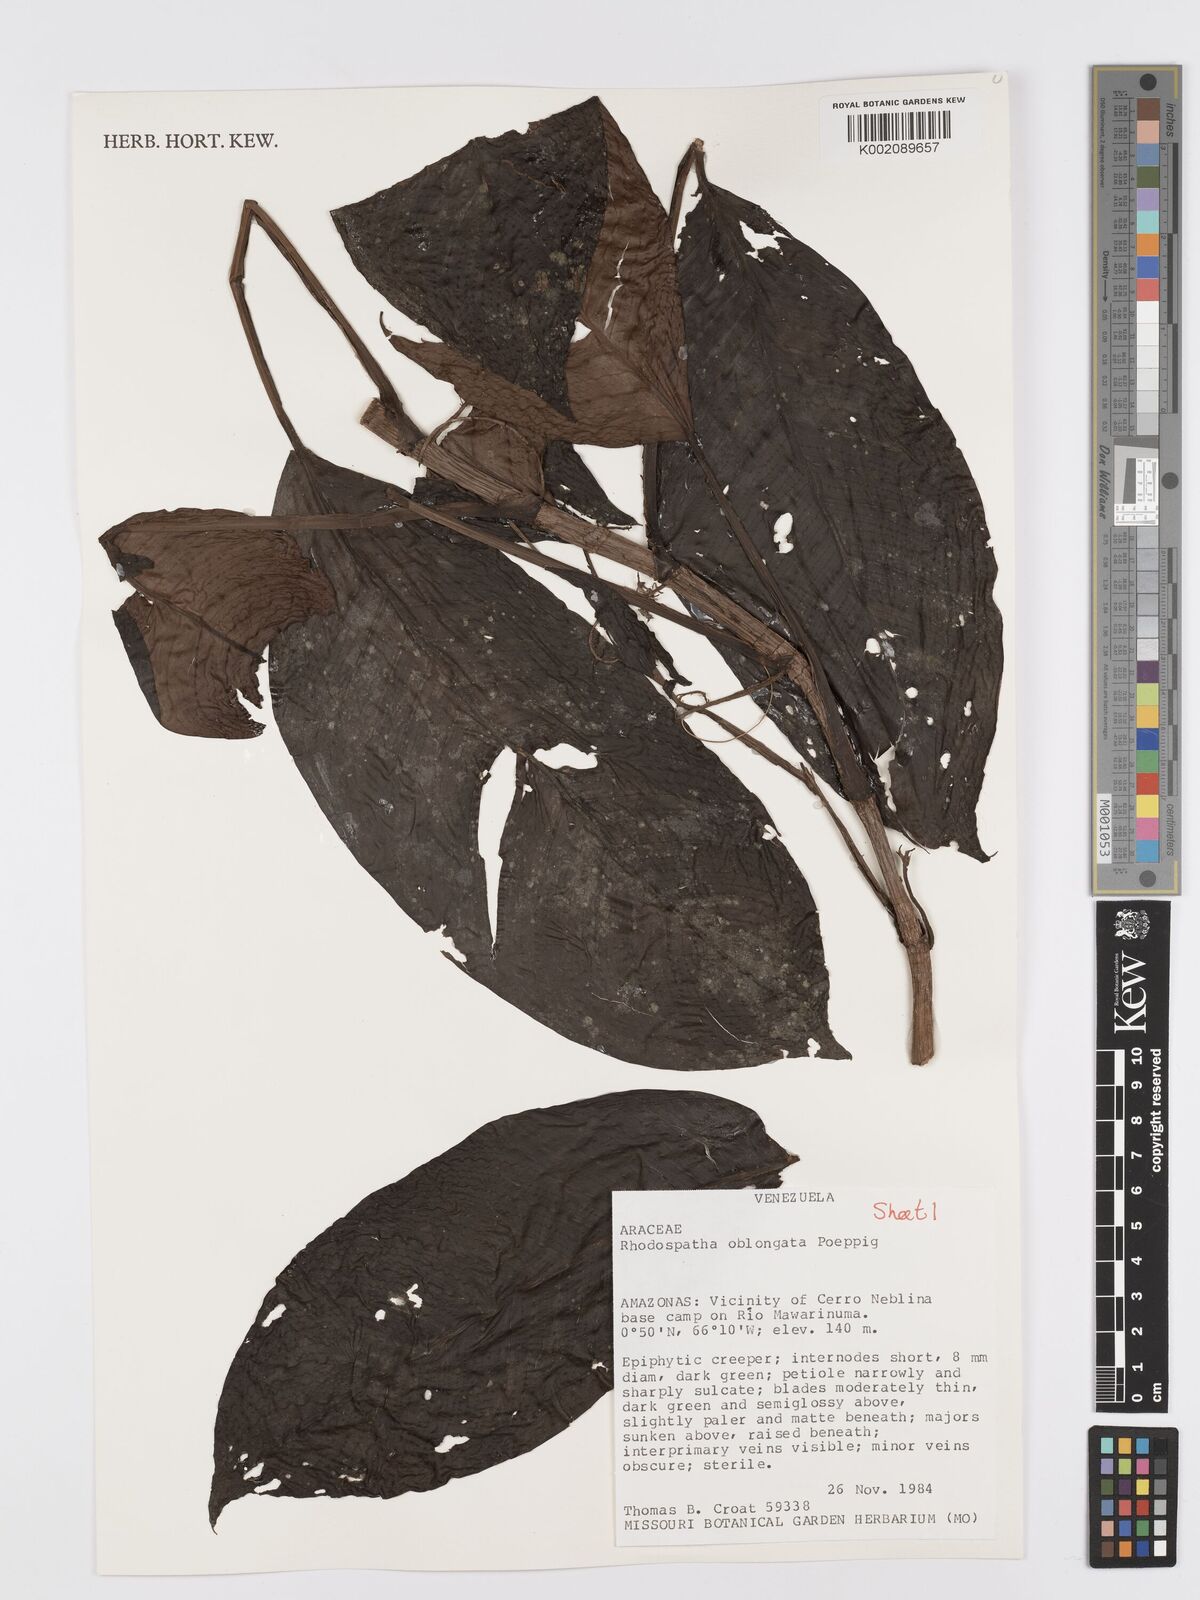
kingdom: Plantae
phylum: Tracheophyta
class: Liliopsida
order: Alismatales
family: Araceae
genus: Rhodospatha
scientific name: Rhodospatha oblongata
